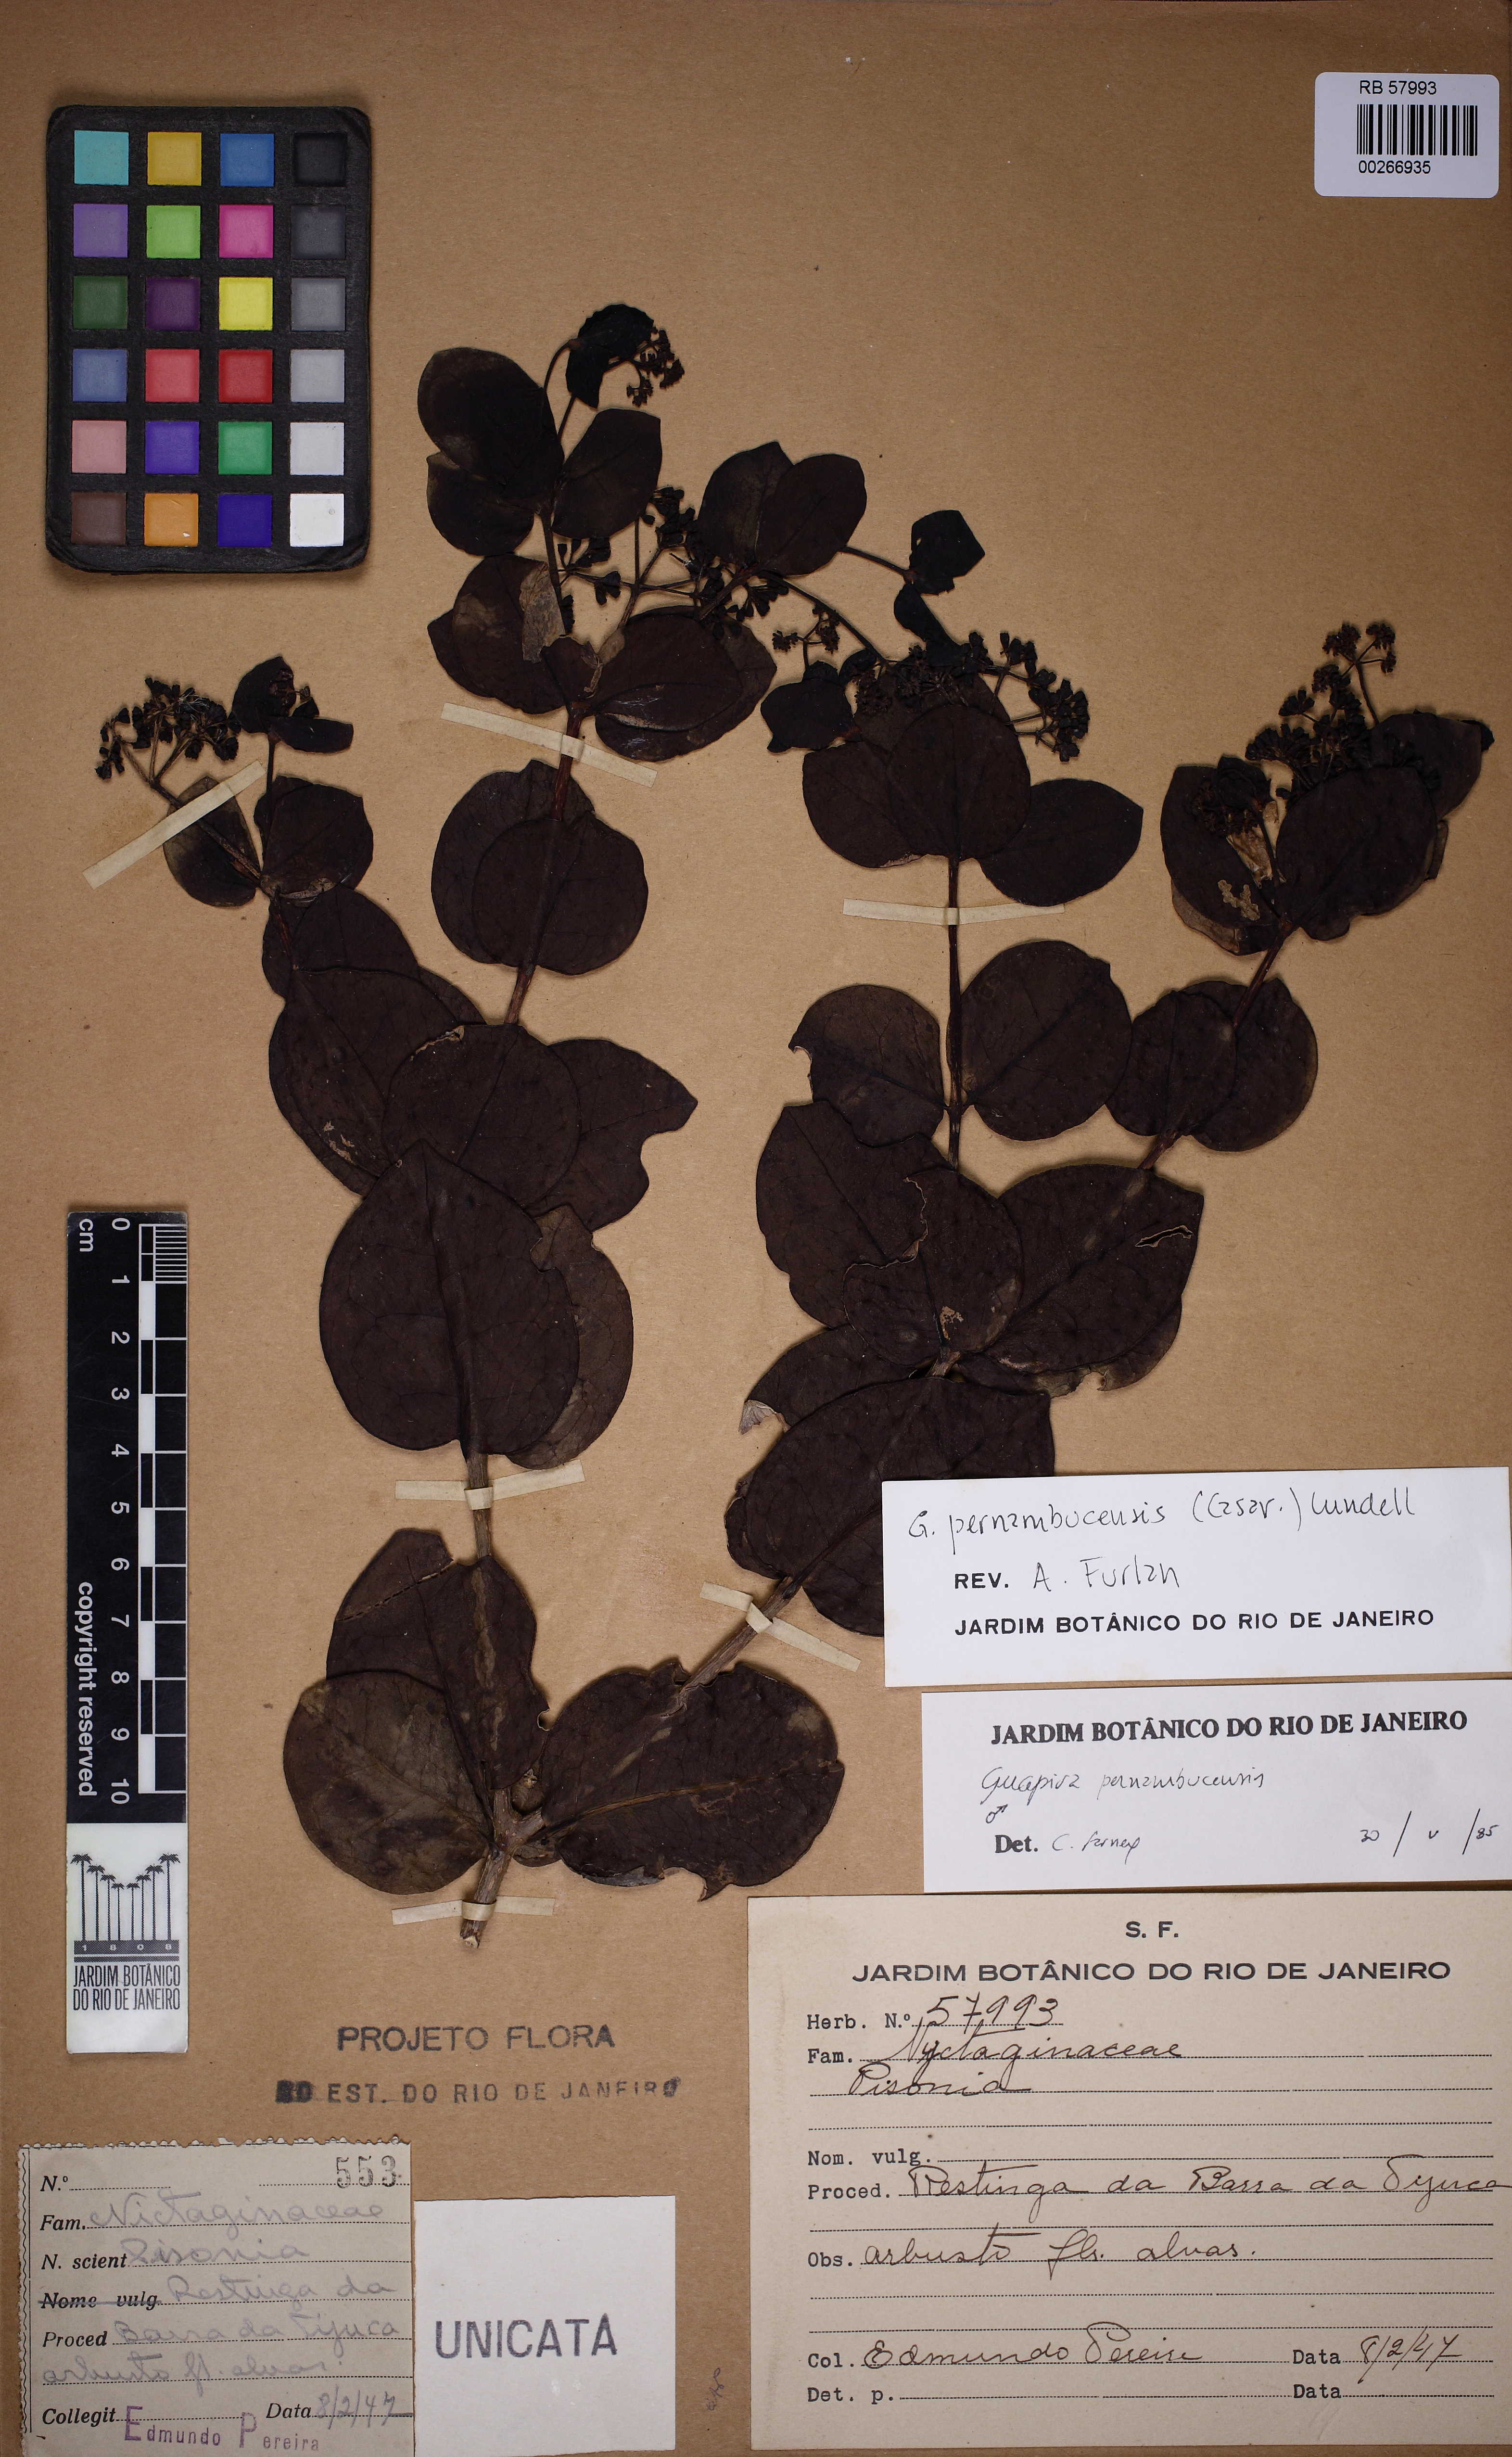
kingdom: Plantae
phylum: Tracheophyta
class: Magnoliopsida
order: Caryophyllales
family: Nyctaginaceae
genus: Guapira
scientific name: Guapira pernambucensis
